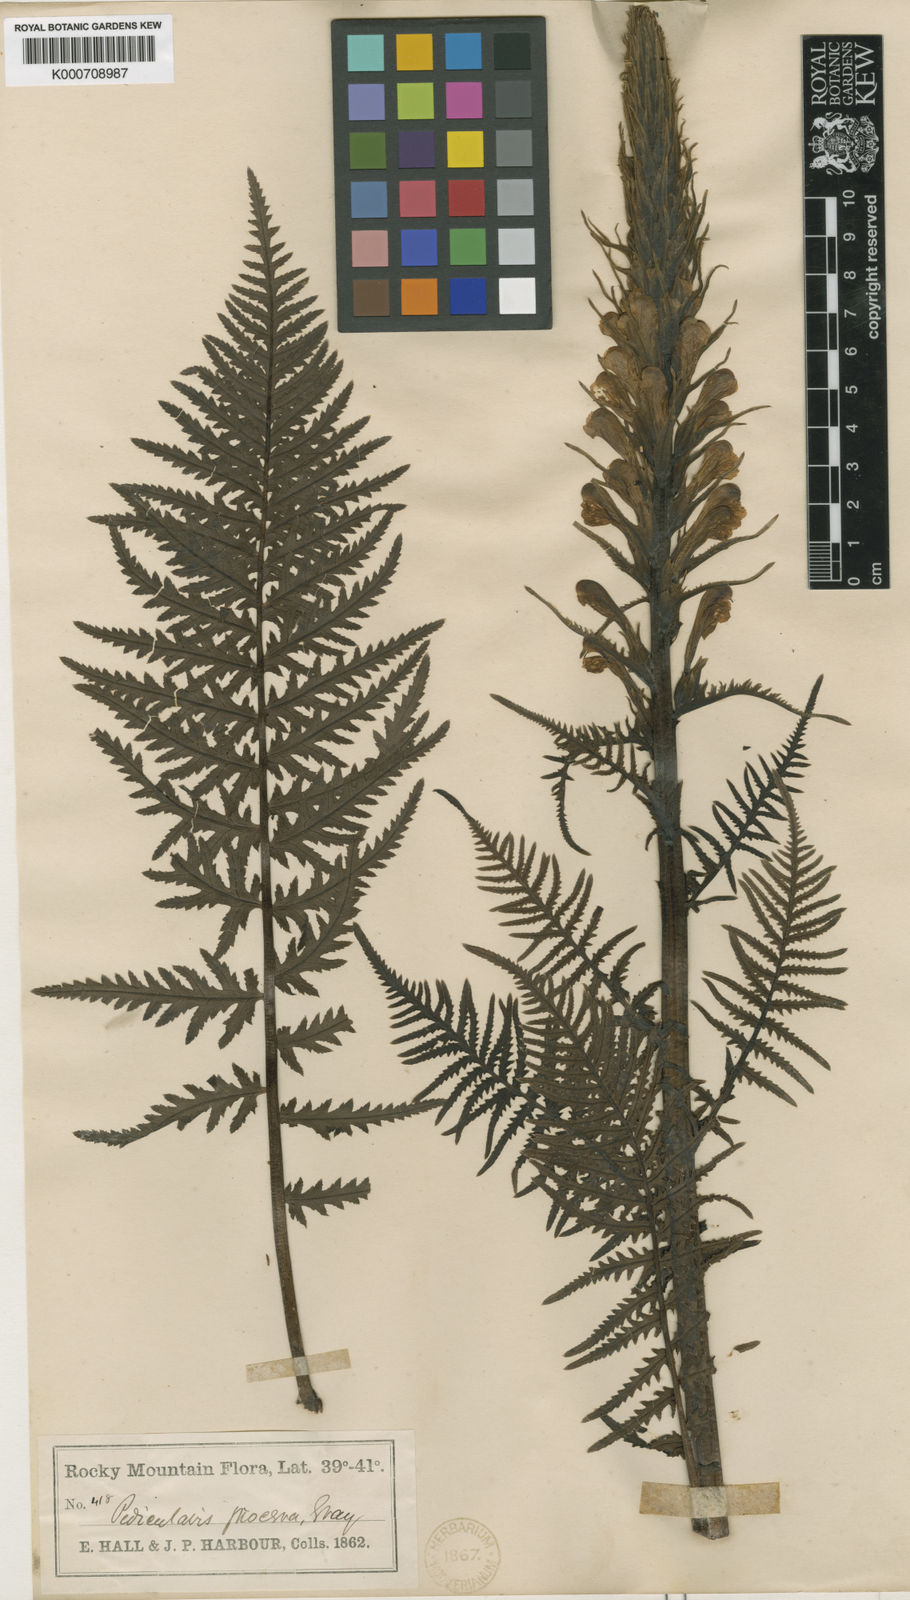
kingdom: Plantae
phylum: Tracheophyta
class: Magnoliopsida
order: Lamiales
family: Orobanchaceae
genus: Pedicularis
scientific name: Pedicularis procera
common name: Gray's lousewort
